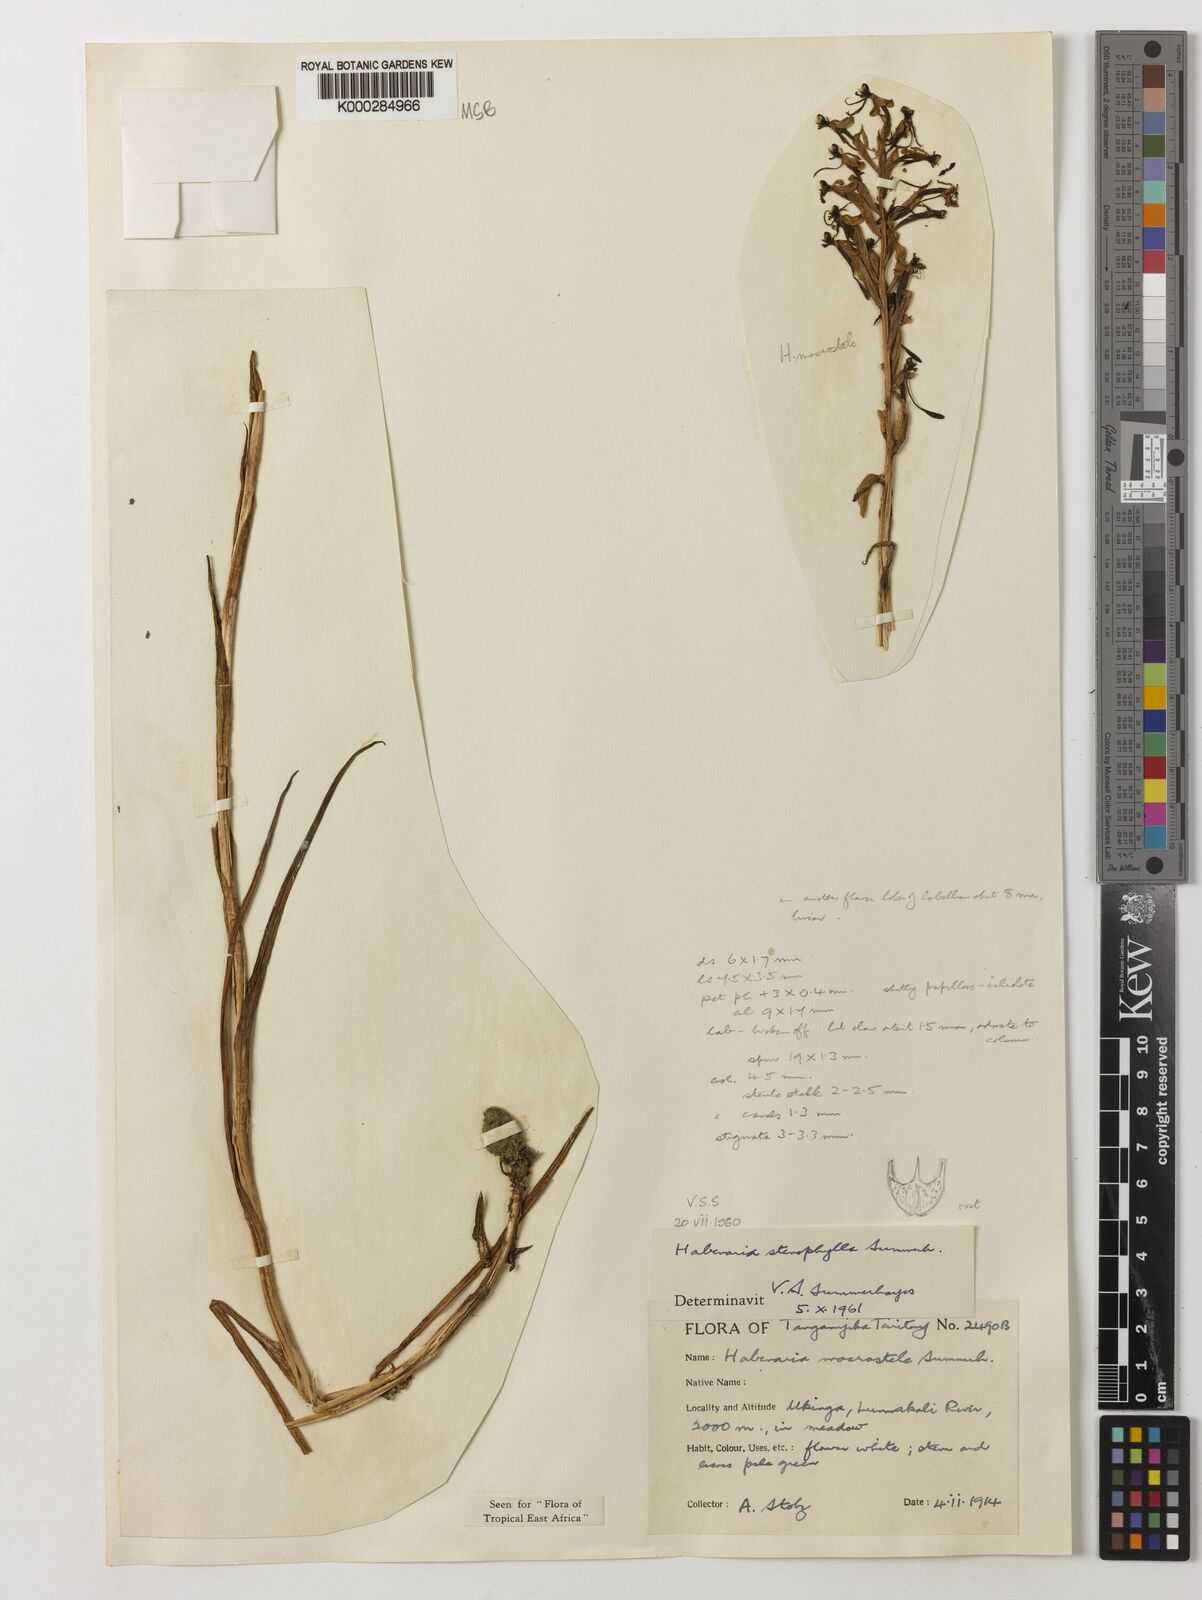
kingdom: Plantae
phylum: Tracheophyta
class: Liliopsida
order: Asparagales
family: Orchidaceae
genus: Habenaria
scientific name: Habenaria stenophylla
